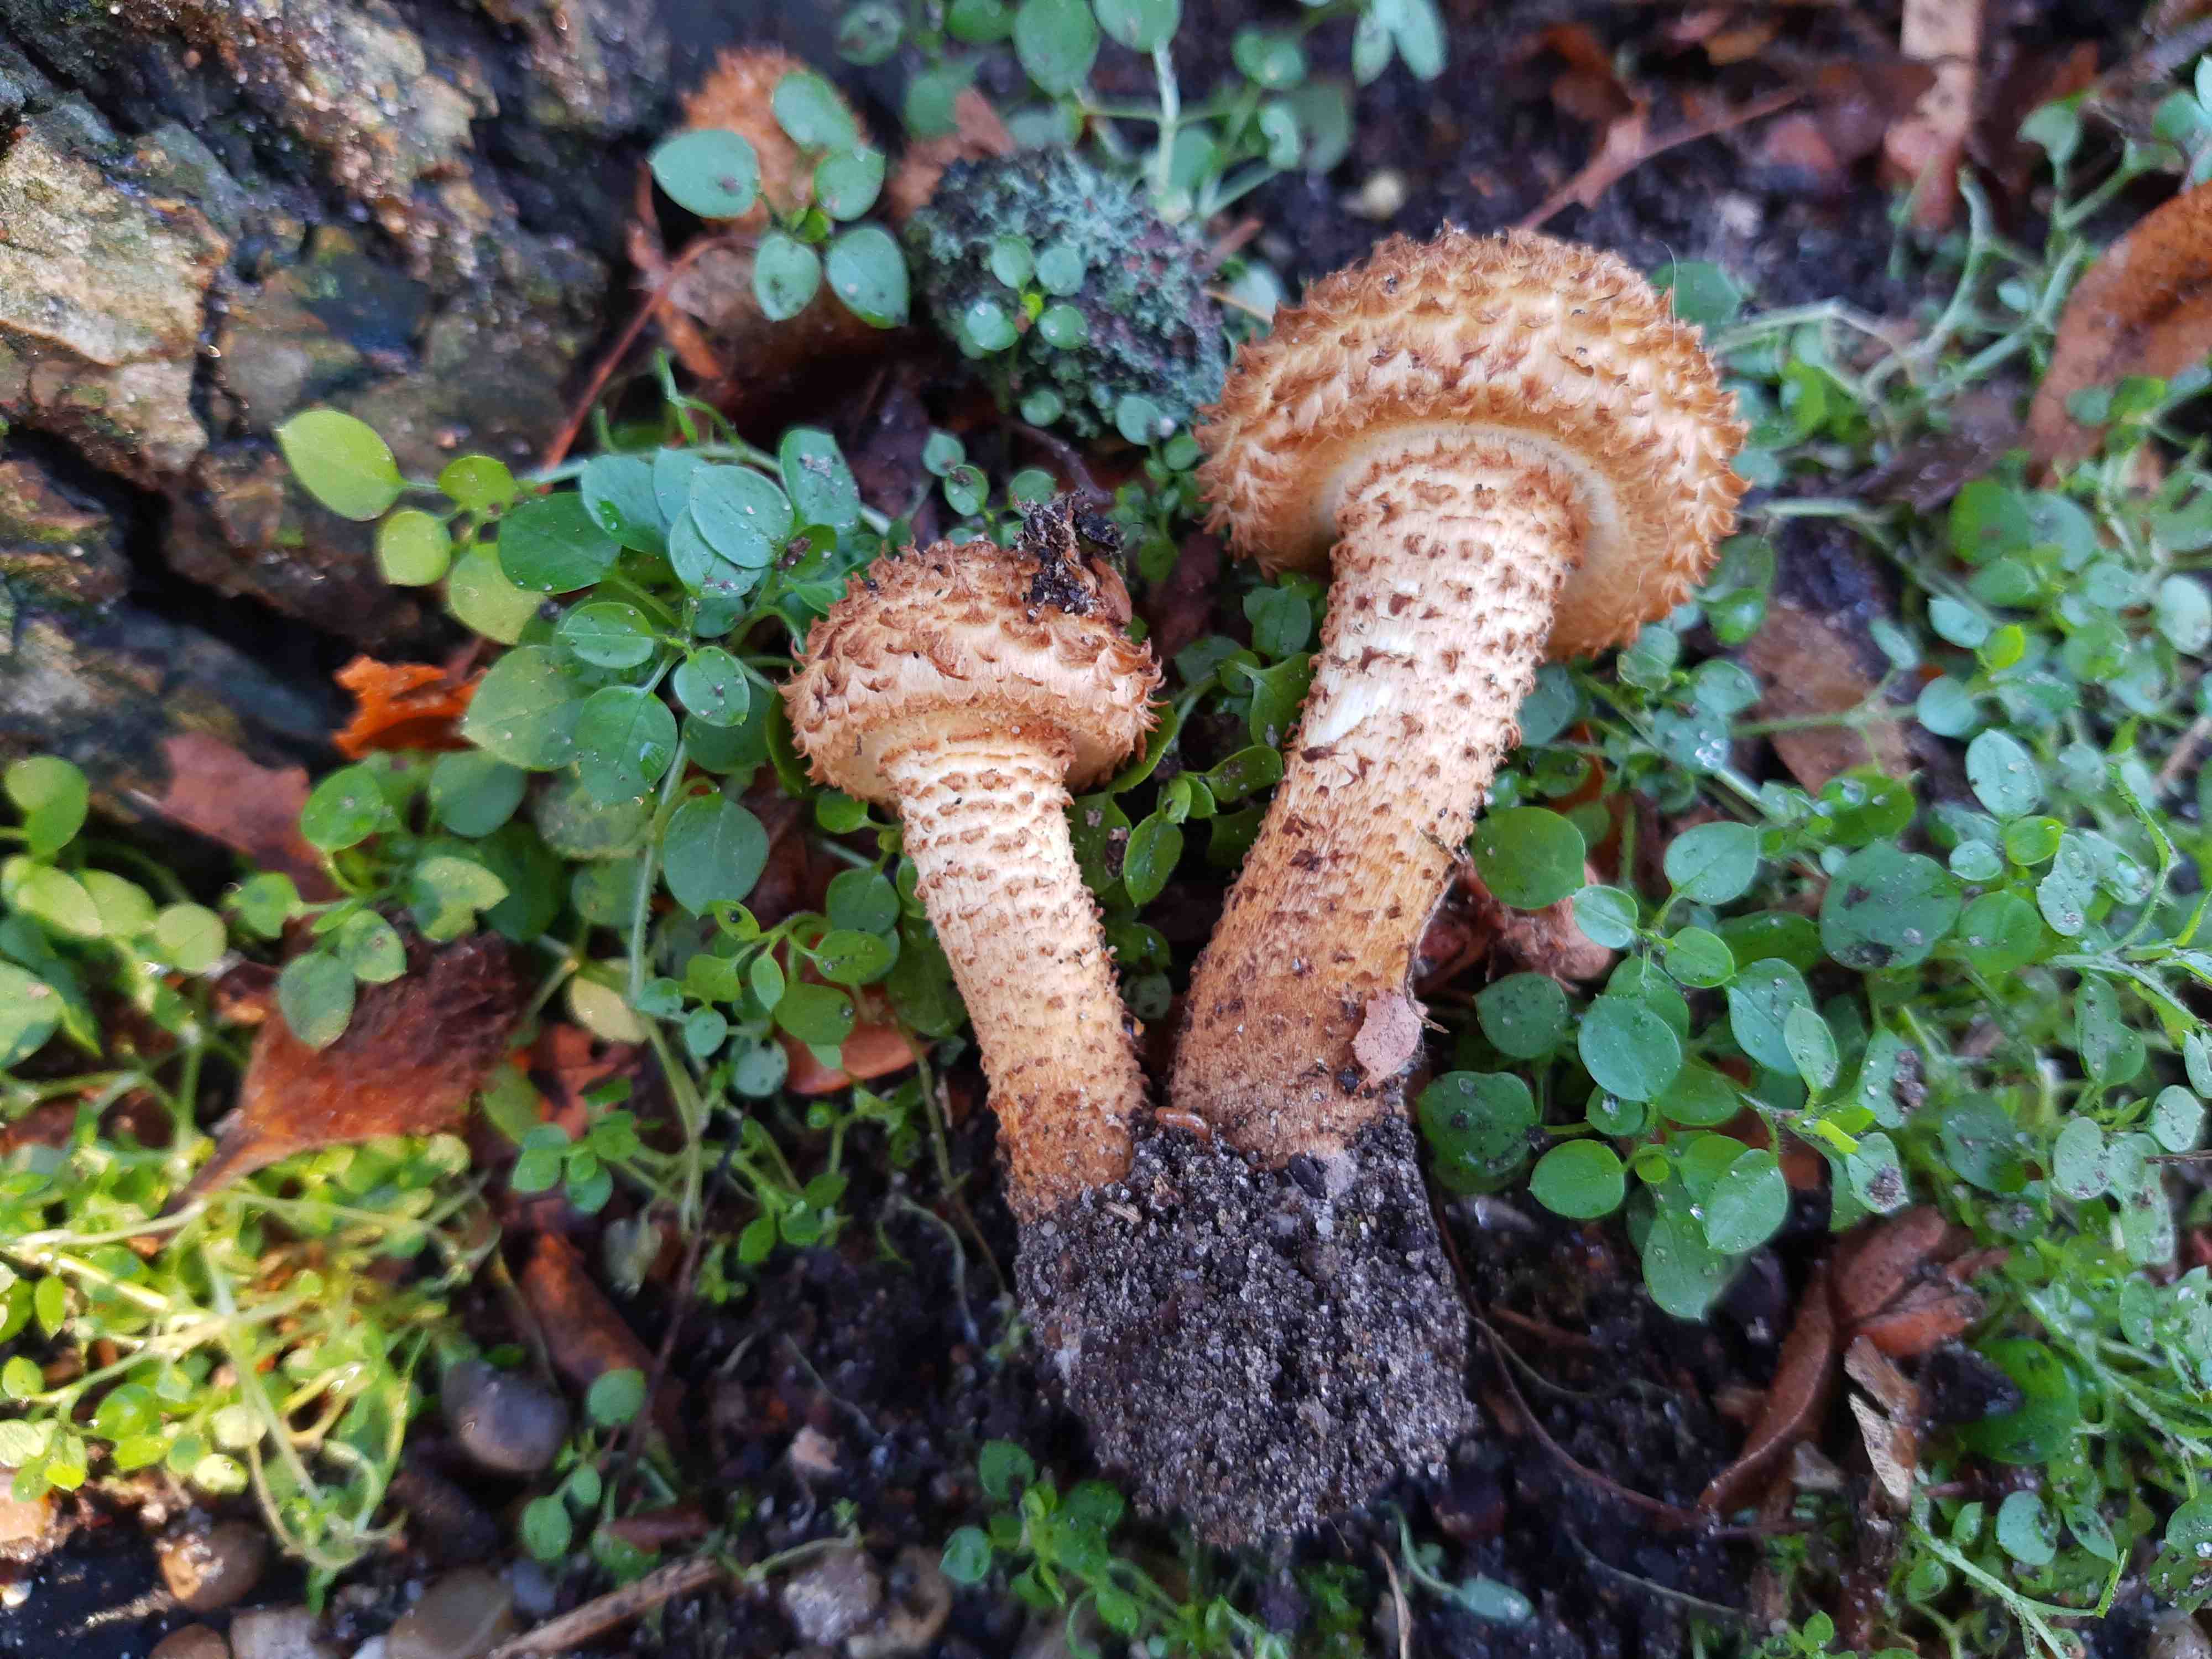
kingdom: Fungi
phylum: Basidiomycota
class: Agaricomycetes
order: Agaricales
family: Strophariaceae
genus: Pholiota
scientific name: Pholiota squarrosa
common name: krumskællet skælhat
